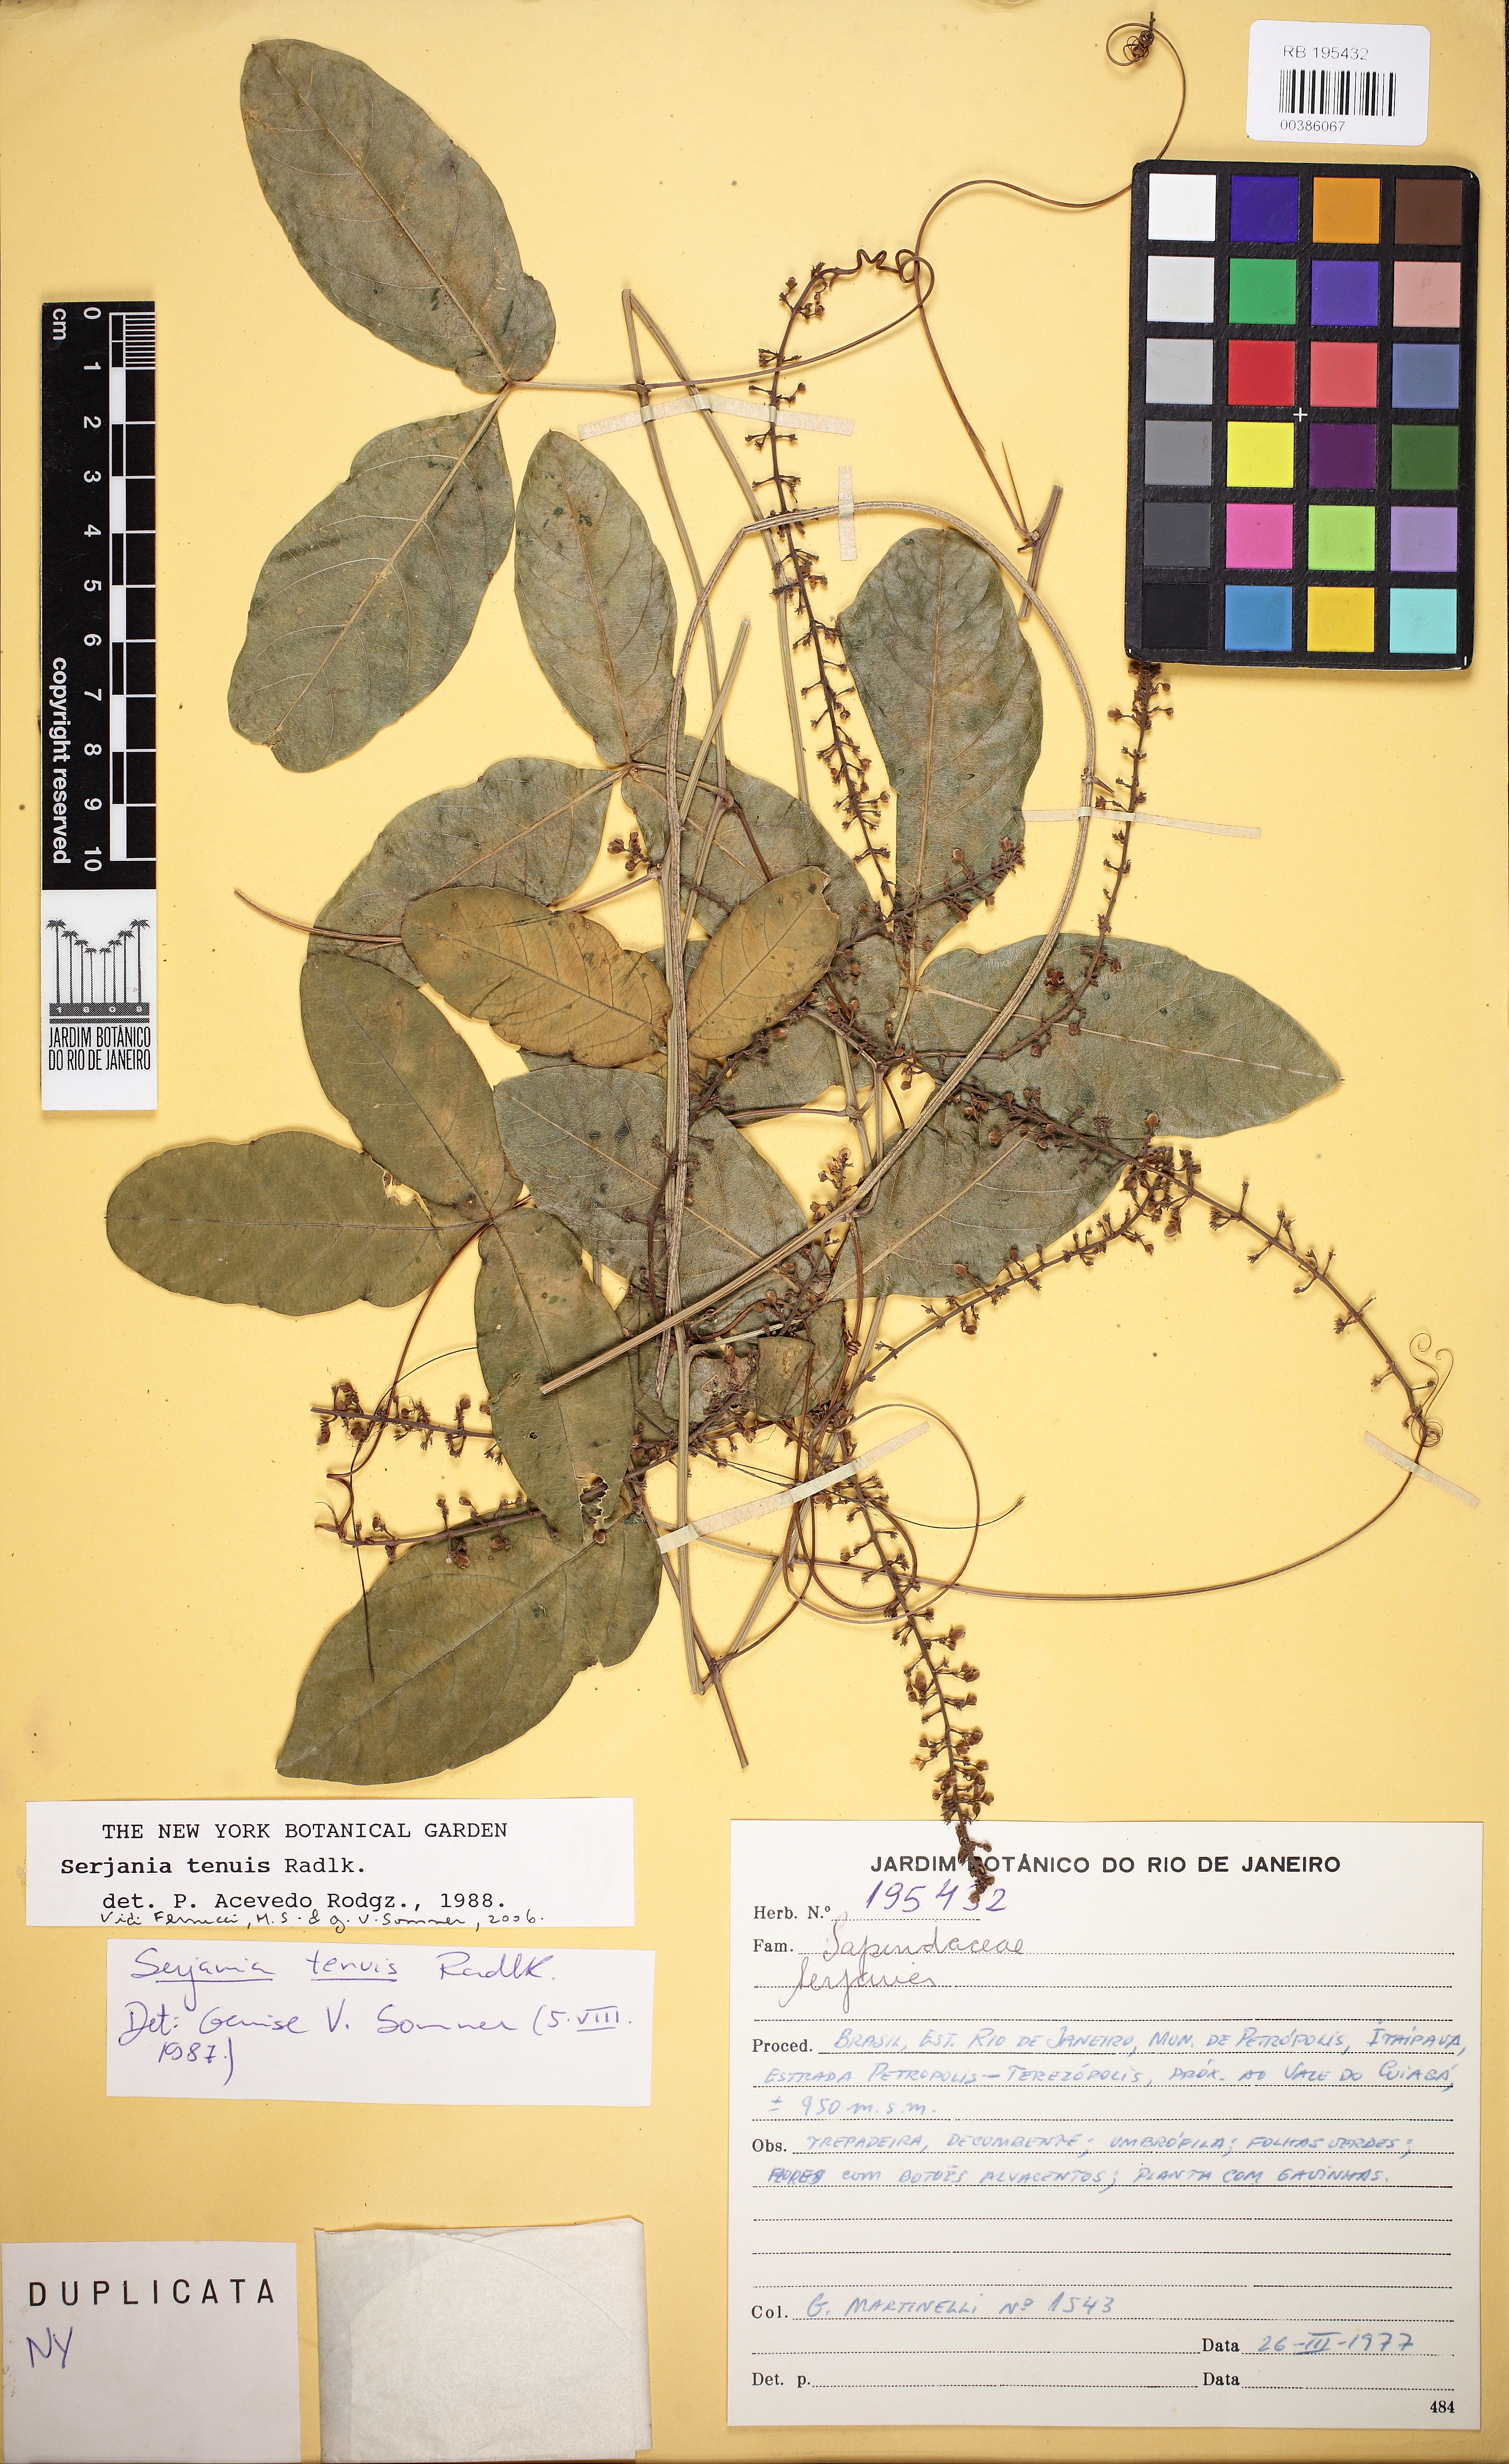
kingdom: Plantae
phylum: Tracheophyta
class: Magnoliopsida
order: Sapindales
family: Sapindaceae
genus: Serjania
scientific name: Serjania tenuis
